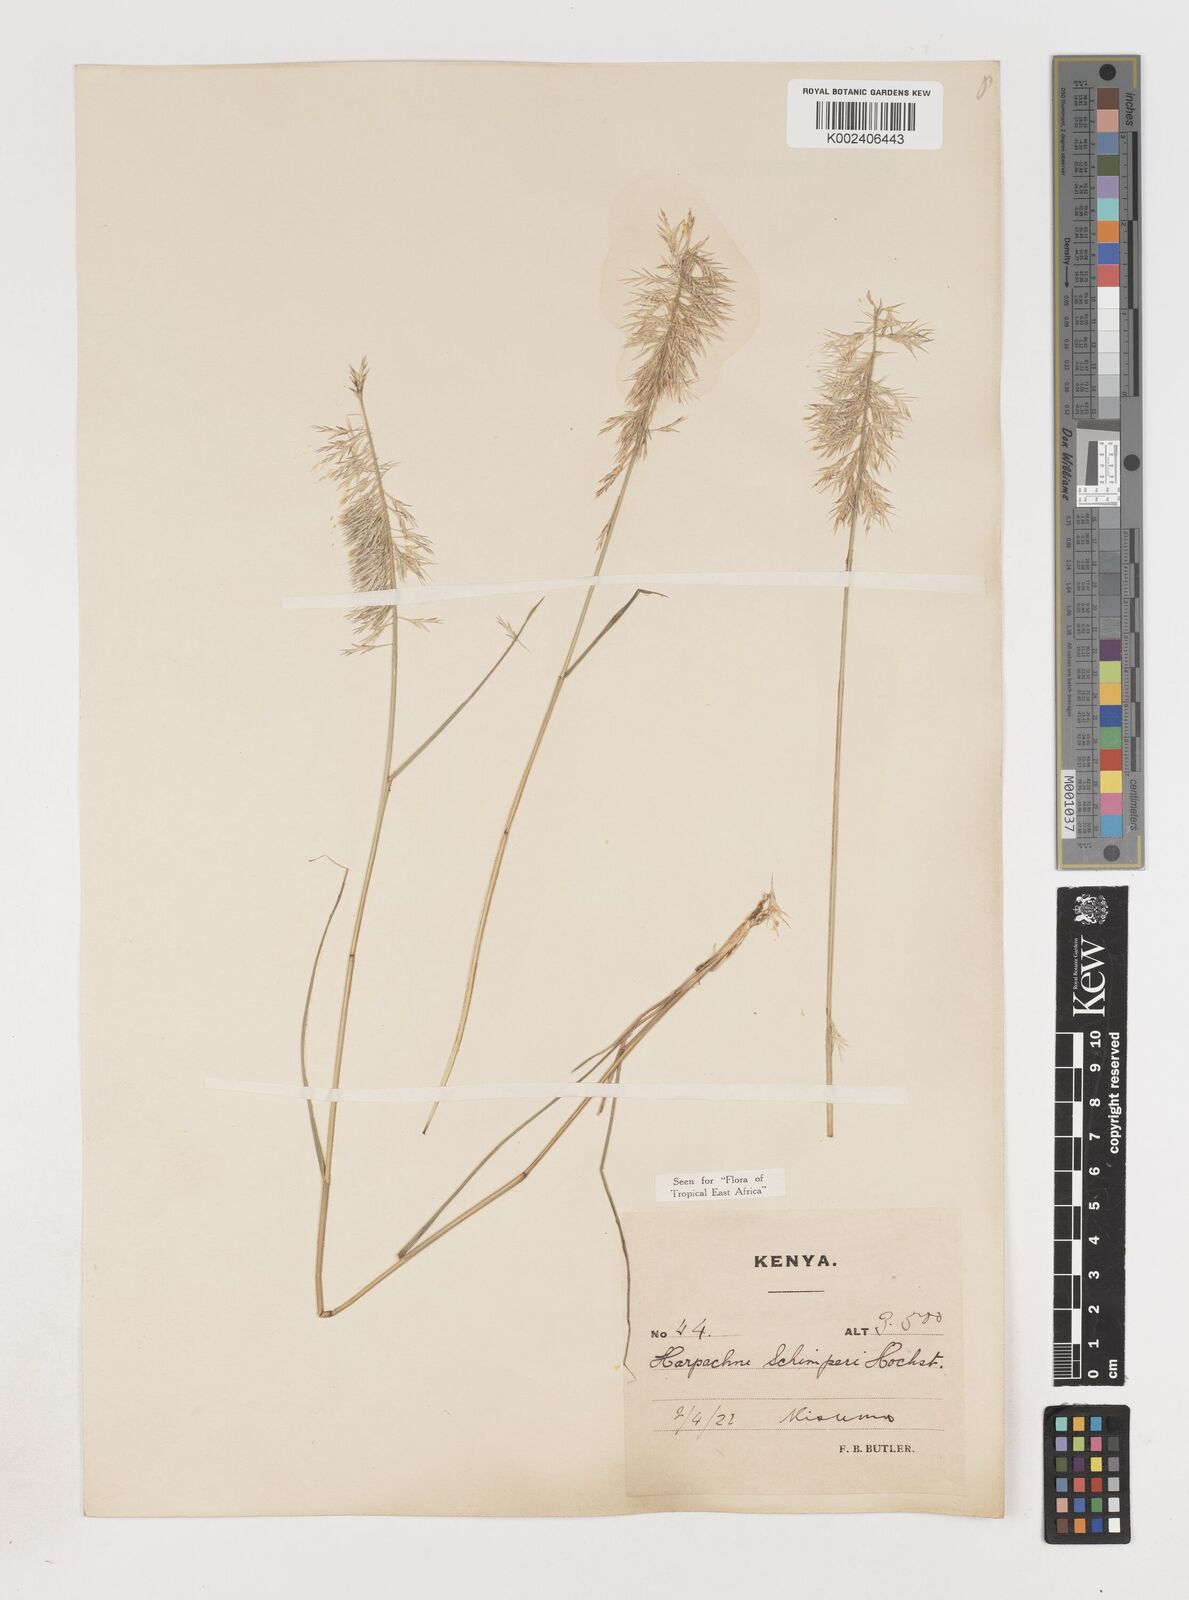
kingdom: Plantae
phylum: Tracheophyta
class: Liliopsida
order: Poales
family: Poaceae
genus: Harpachne
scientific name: Harpachne schimperi
